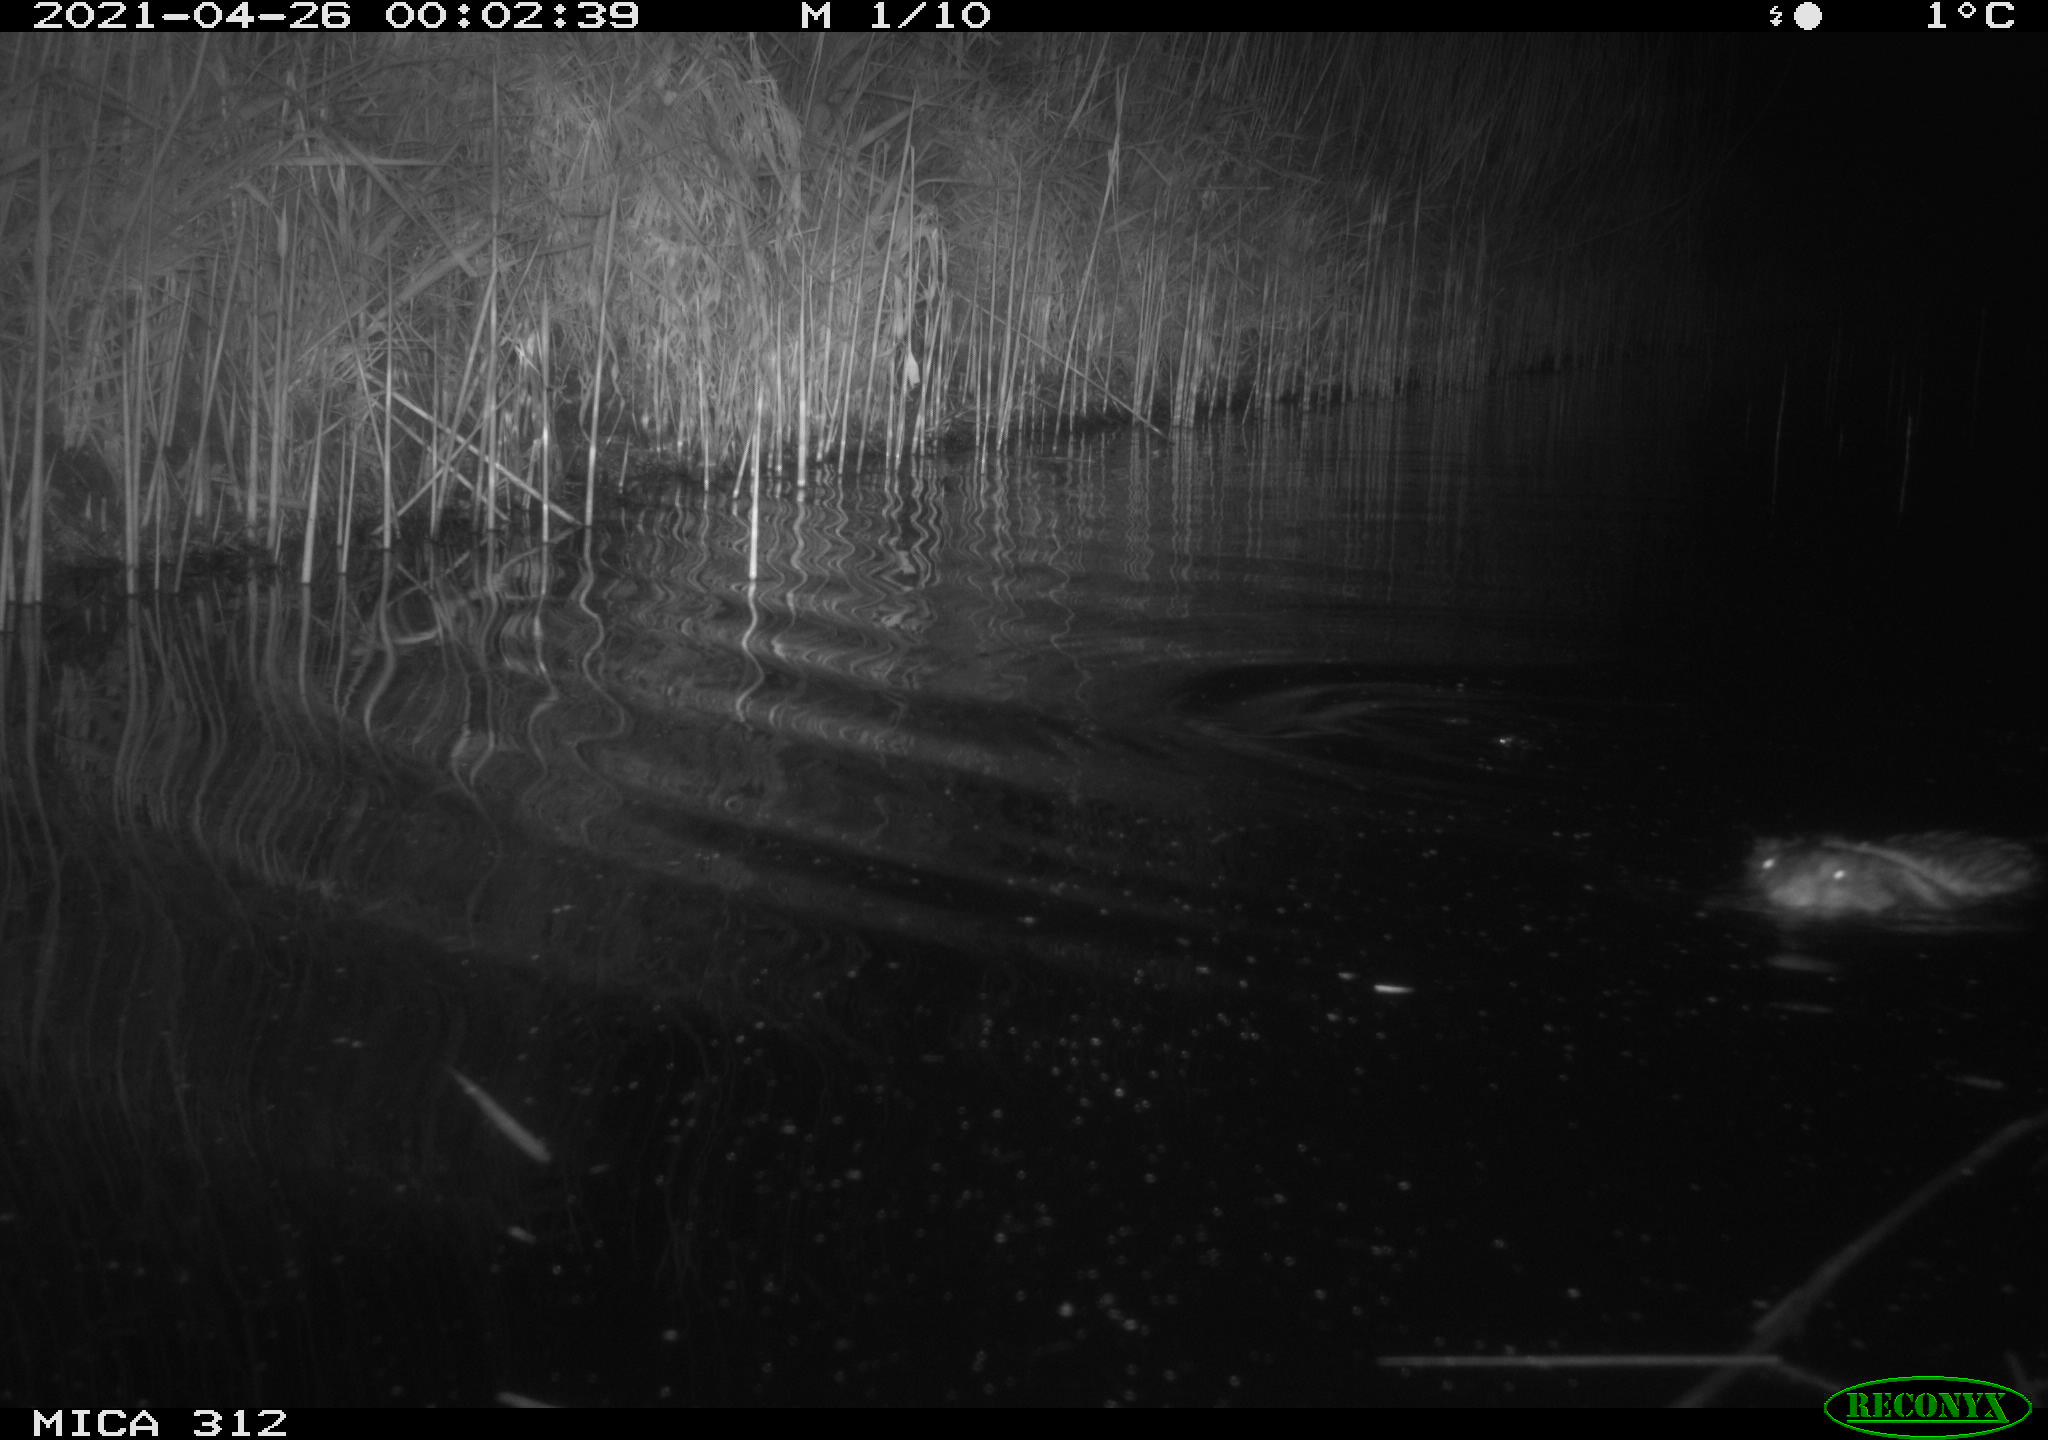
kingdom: Animalia
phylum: Chordata
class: Mammalia
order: Rodentia
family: Cricetidae
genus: Ondatra
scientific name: Ondatra zibethicus
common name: Muskrat
